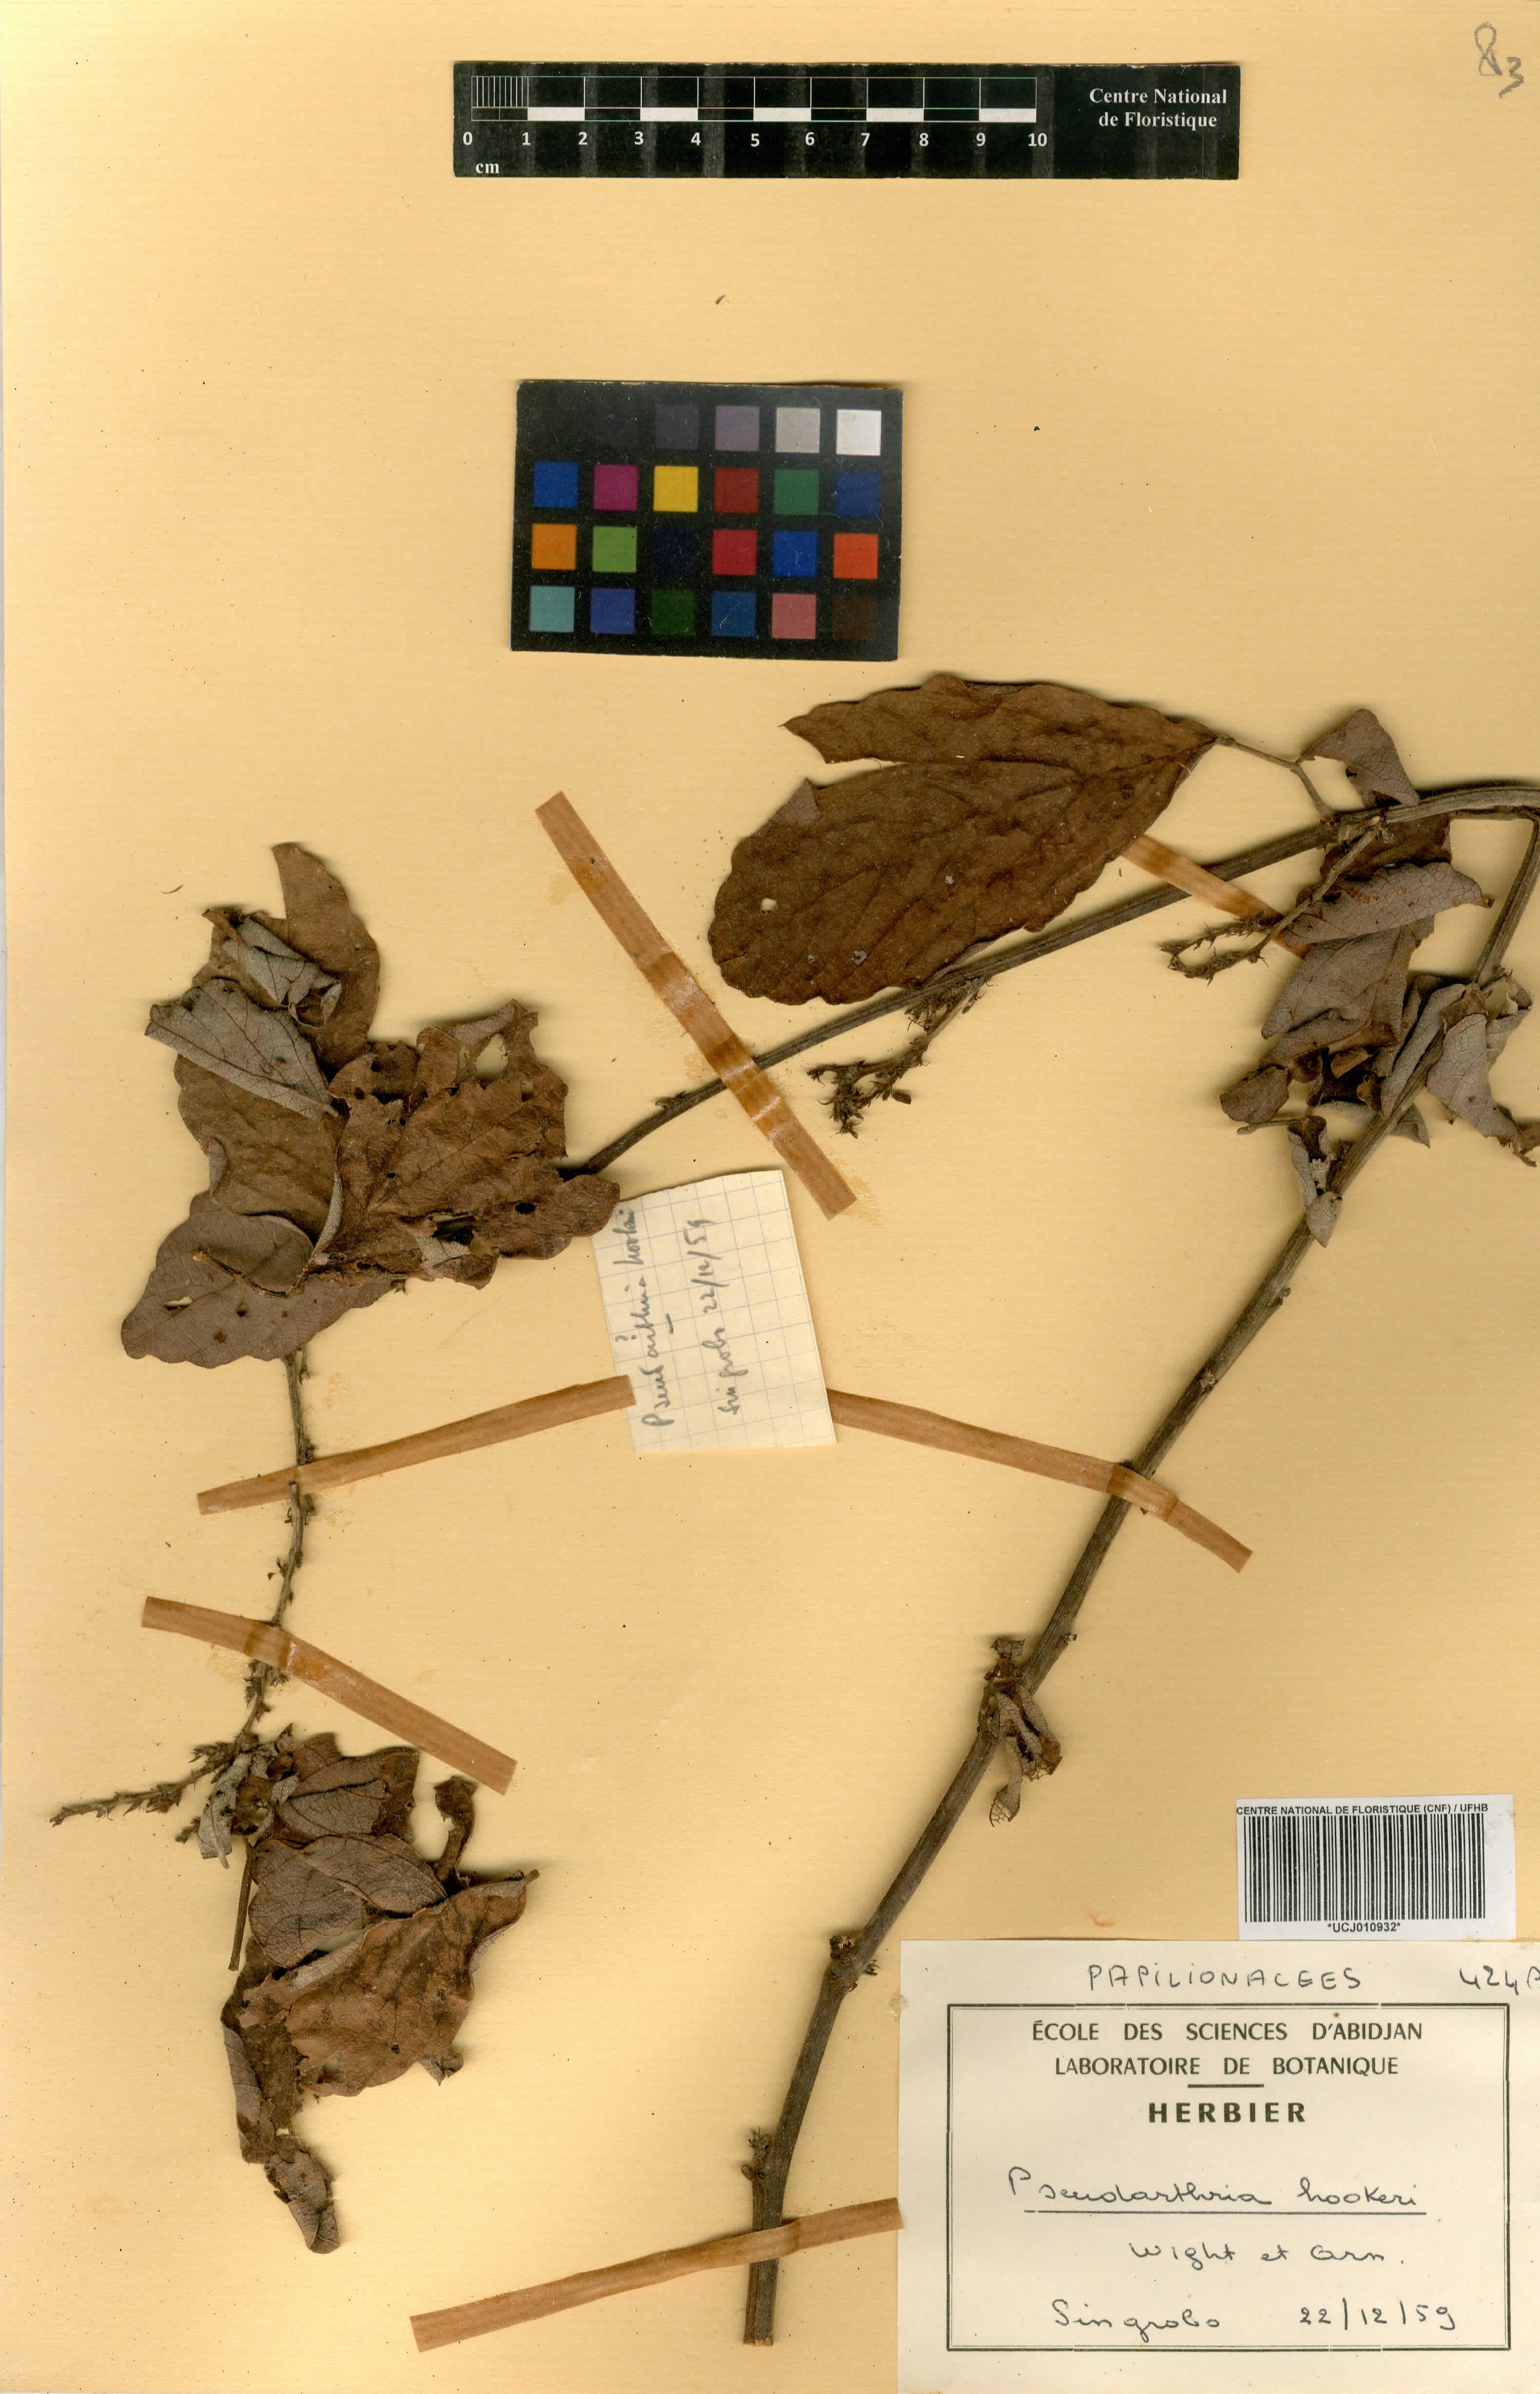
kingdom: Plantae
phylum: Tracheophyta
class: Magnoliopsida
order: Fabales
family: Fabaceae
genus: Pseudarthria
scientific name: Pseudarthria hookeri
